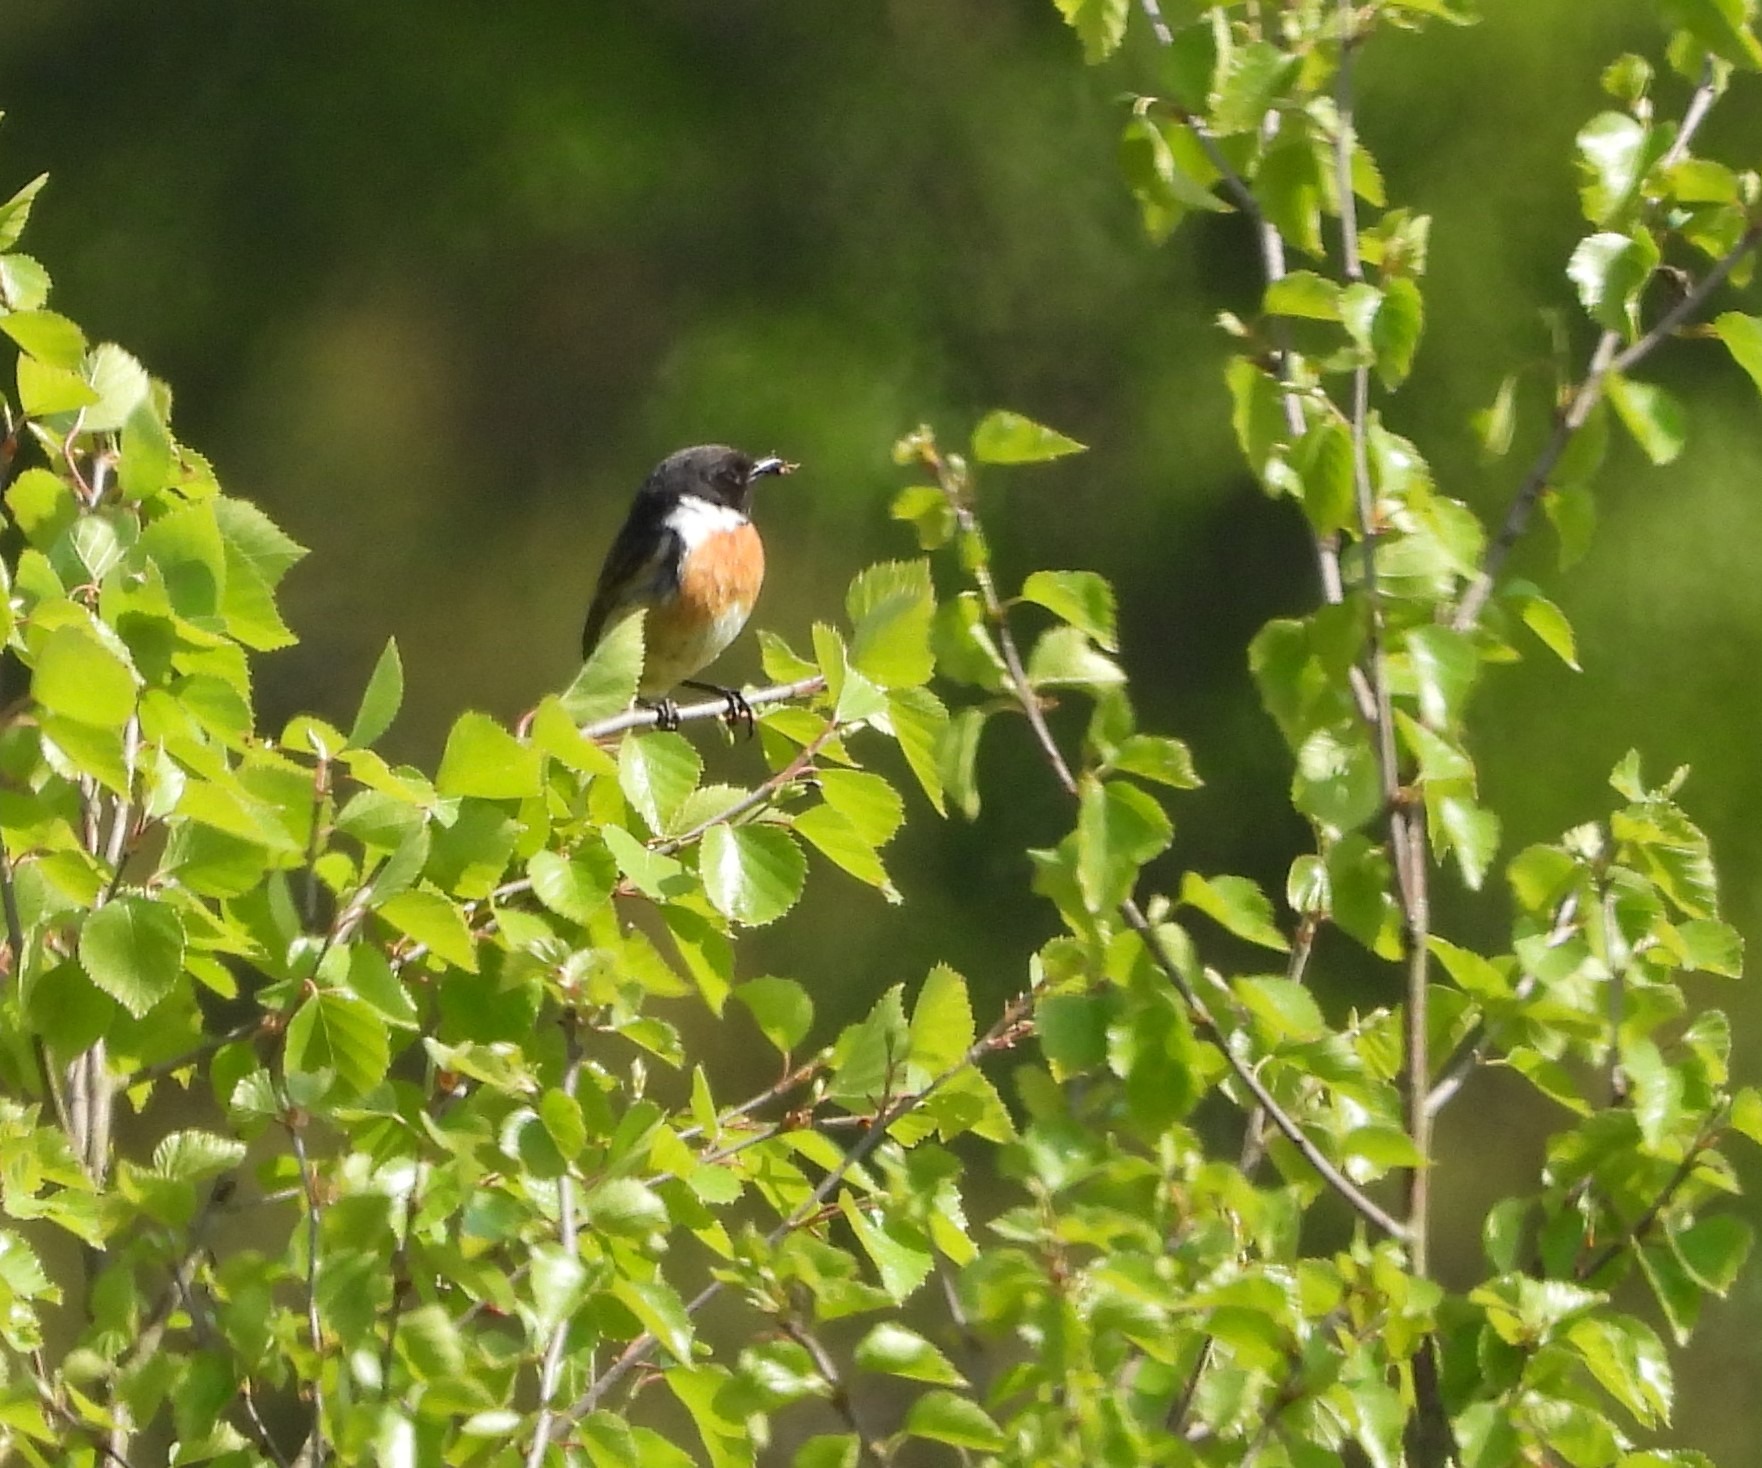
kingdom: Animalia
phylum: Chordata
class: Aves
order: Passeriformes
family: Muscicapidae
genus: Saxicola
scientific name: Saxicola rubicola
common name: Sortstrubet bynkefugl
